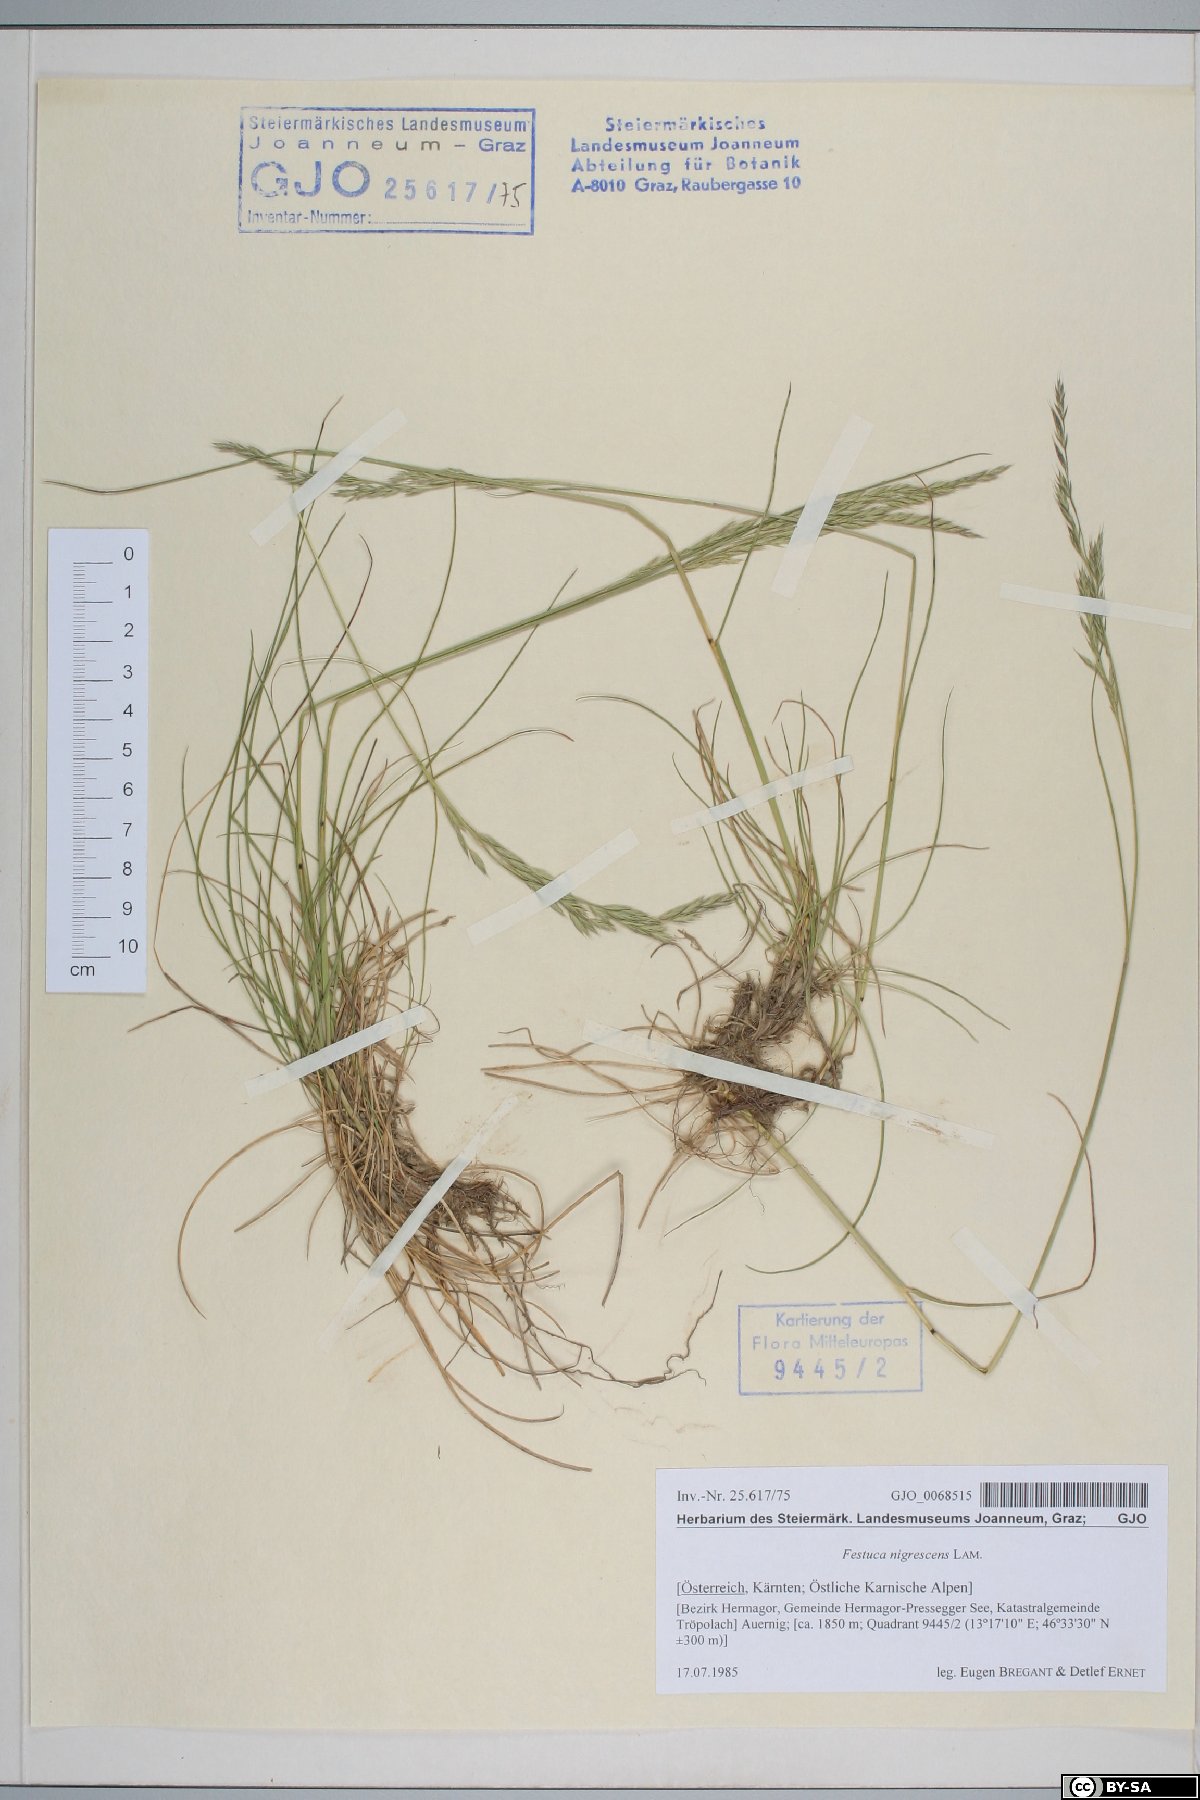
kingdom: Plantae
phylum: Tracheophyta
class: Liliopsida
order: Poales
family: Poaceae
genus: Festuca
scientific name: Festuca nigrescens
